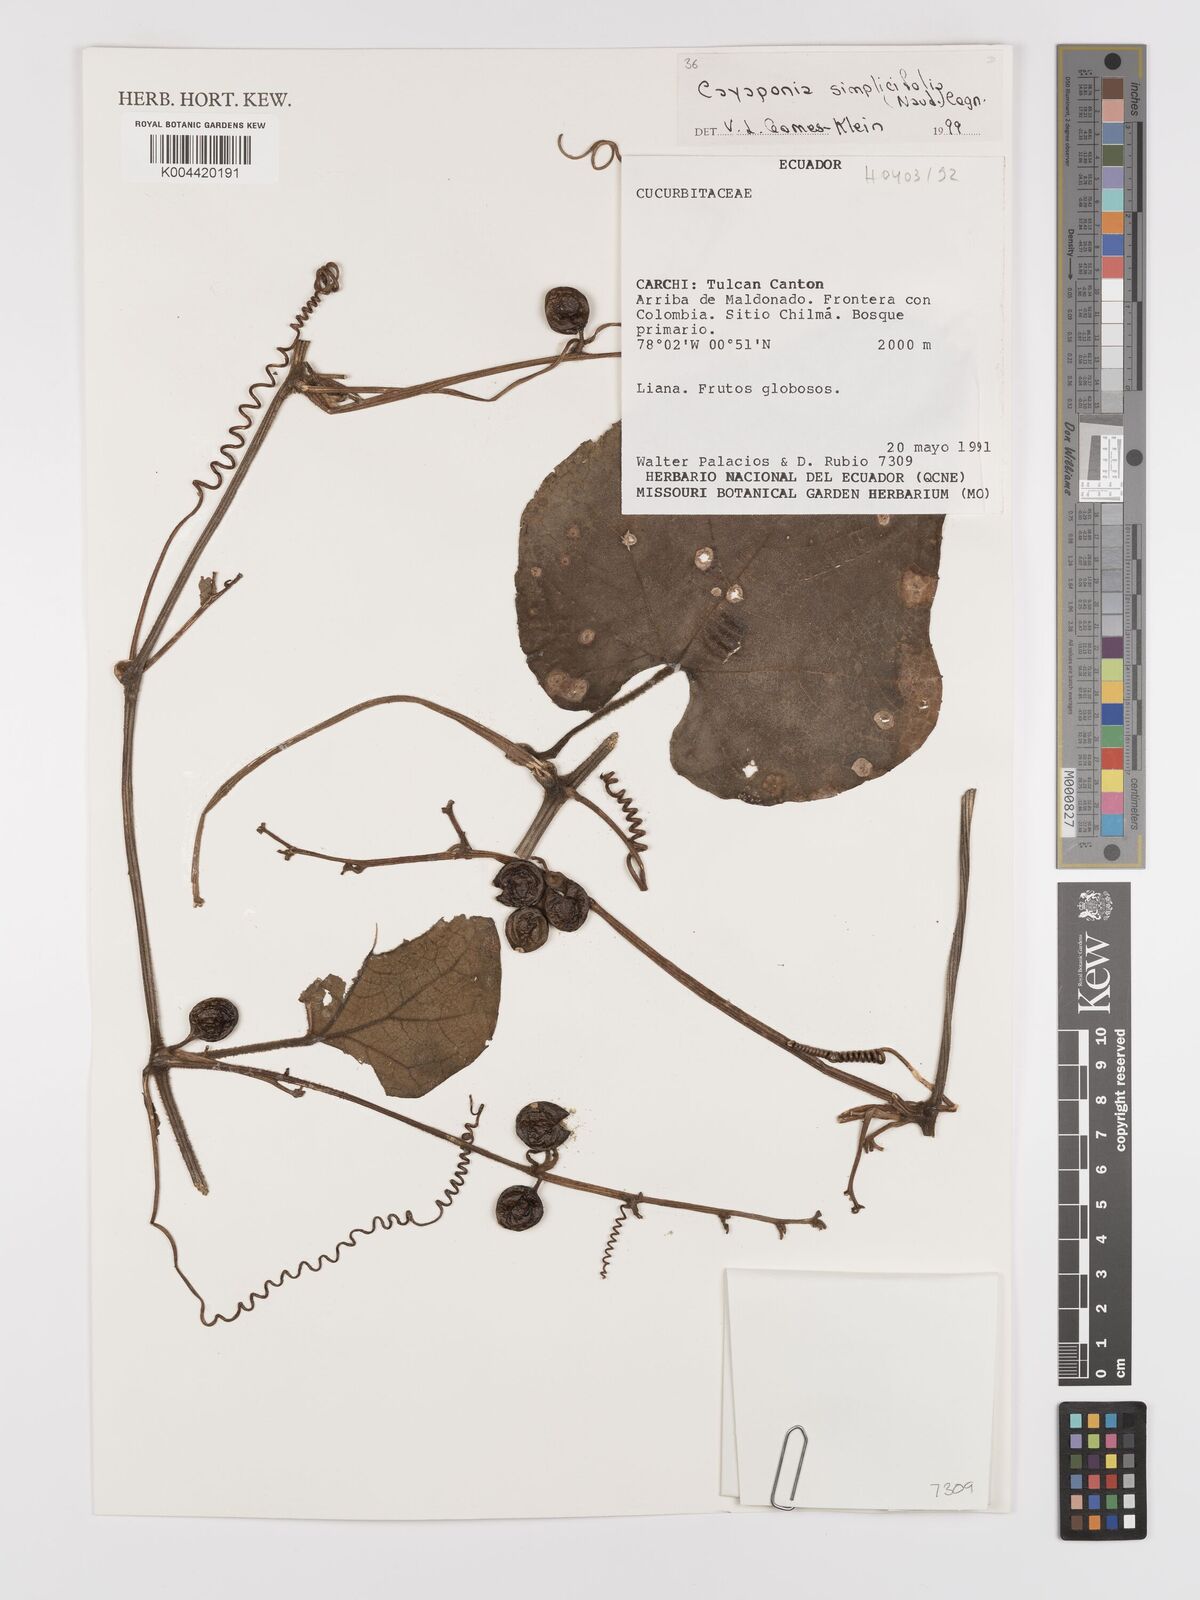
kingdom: Plantae
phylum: Tracheophyta
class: Magnoliopsida
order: Cucurbitales
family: Cucurbitaceae
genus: Cayaponia
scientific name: Cayaponia simplicifolia
